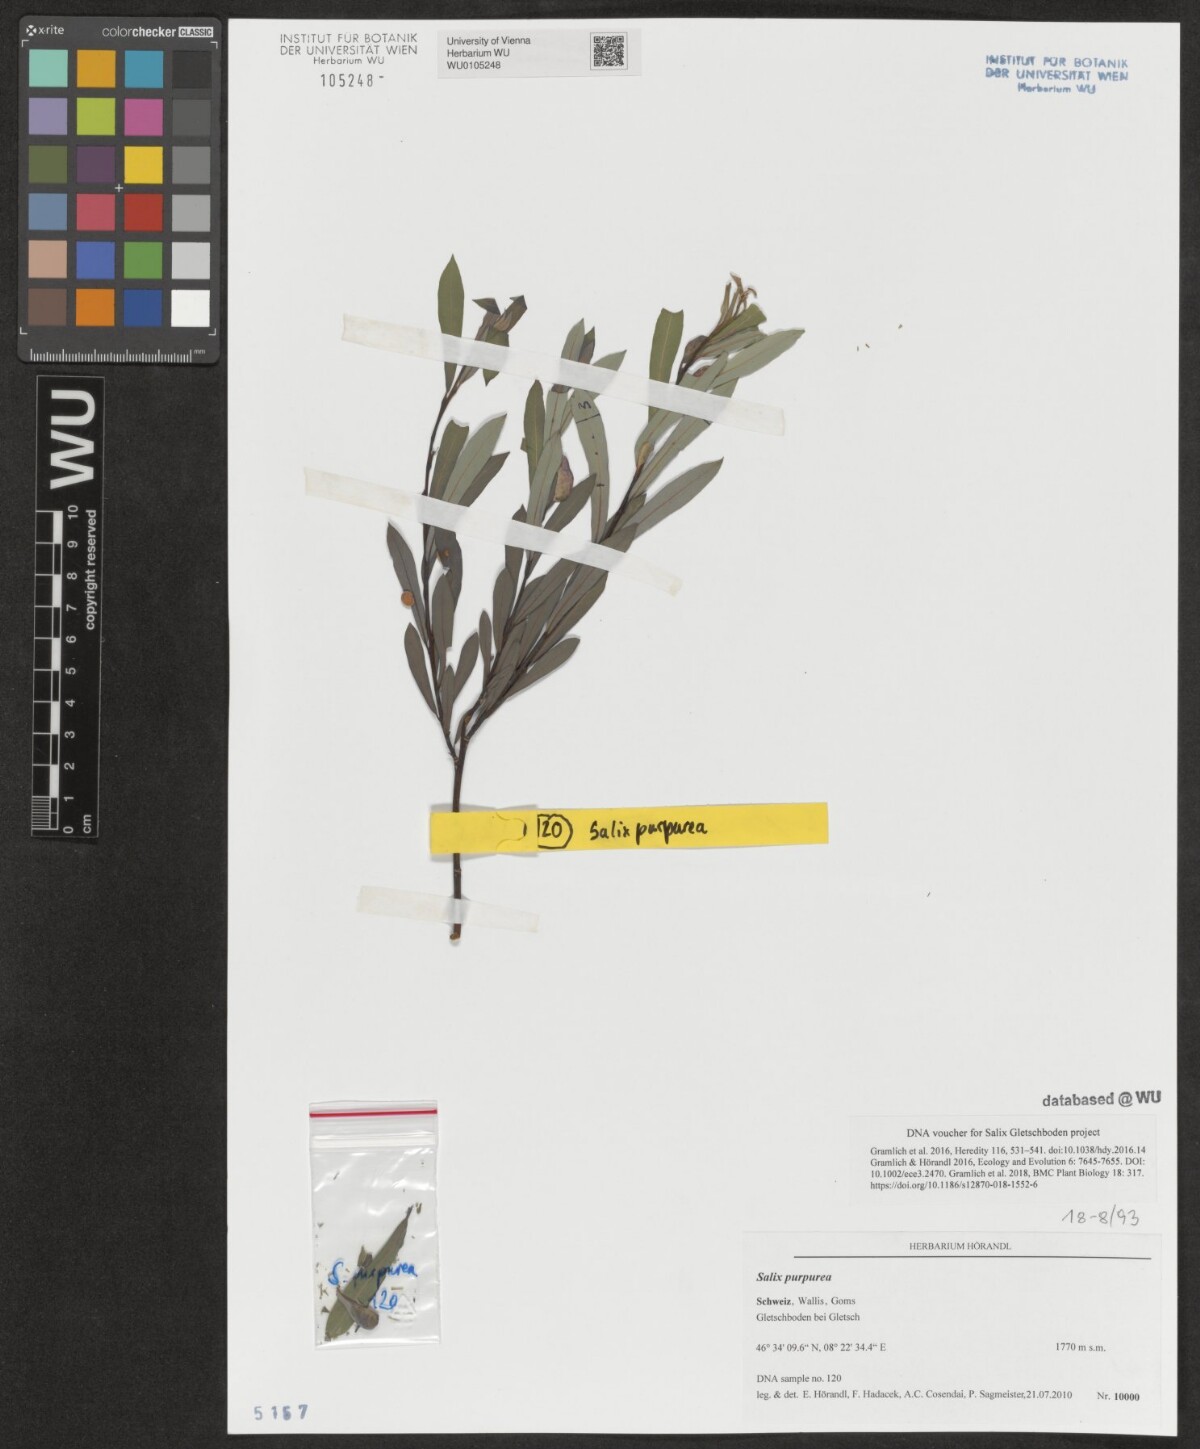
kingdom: Plantae
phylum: Tracheophyta
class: Magnoliopsida
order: Malpighiales
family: Salicaceae
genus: Salix
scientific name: Salix purpurea
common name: Purple willow
